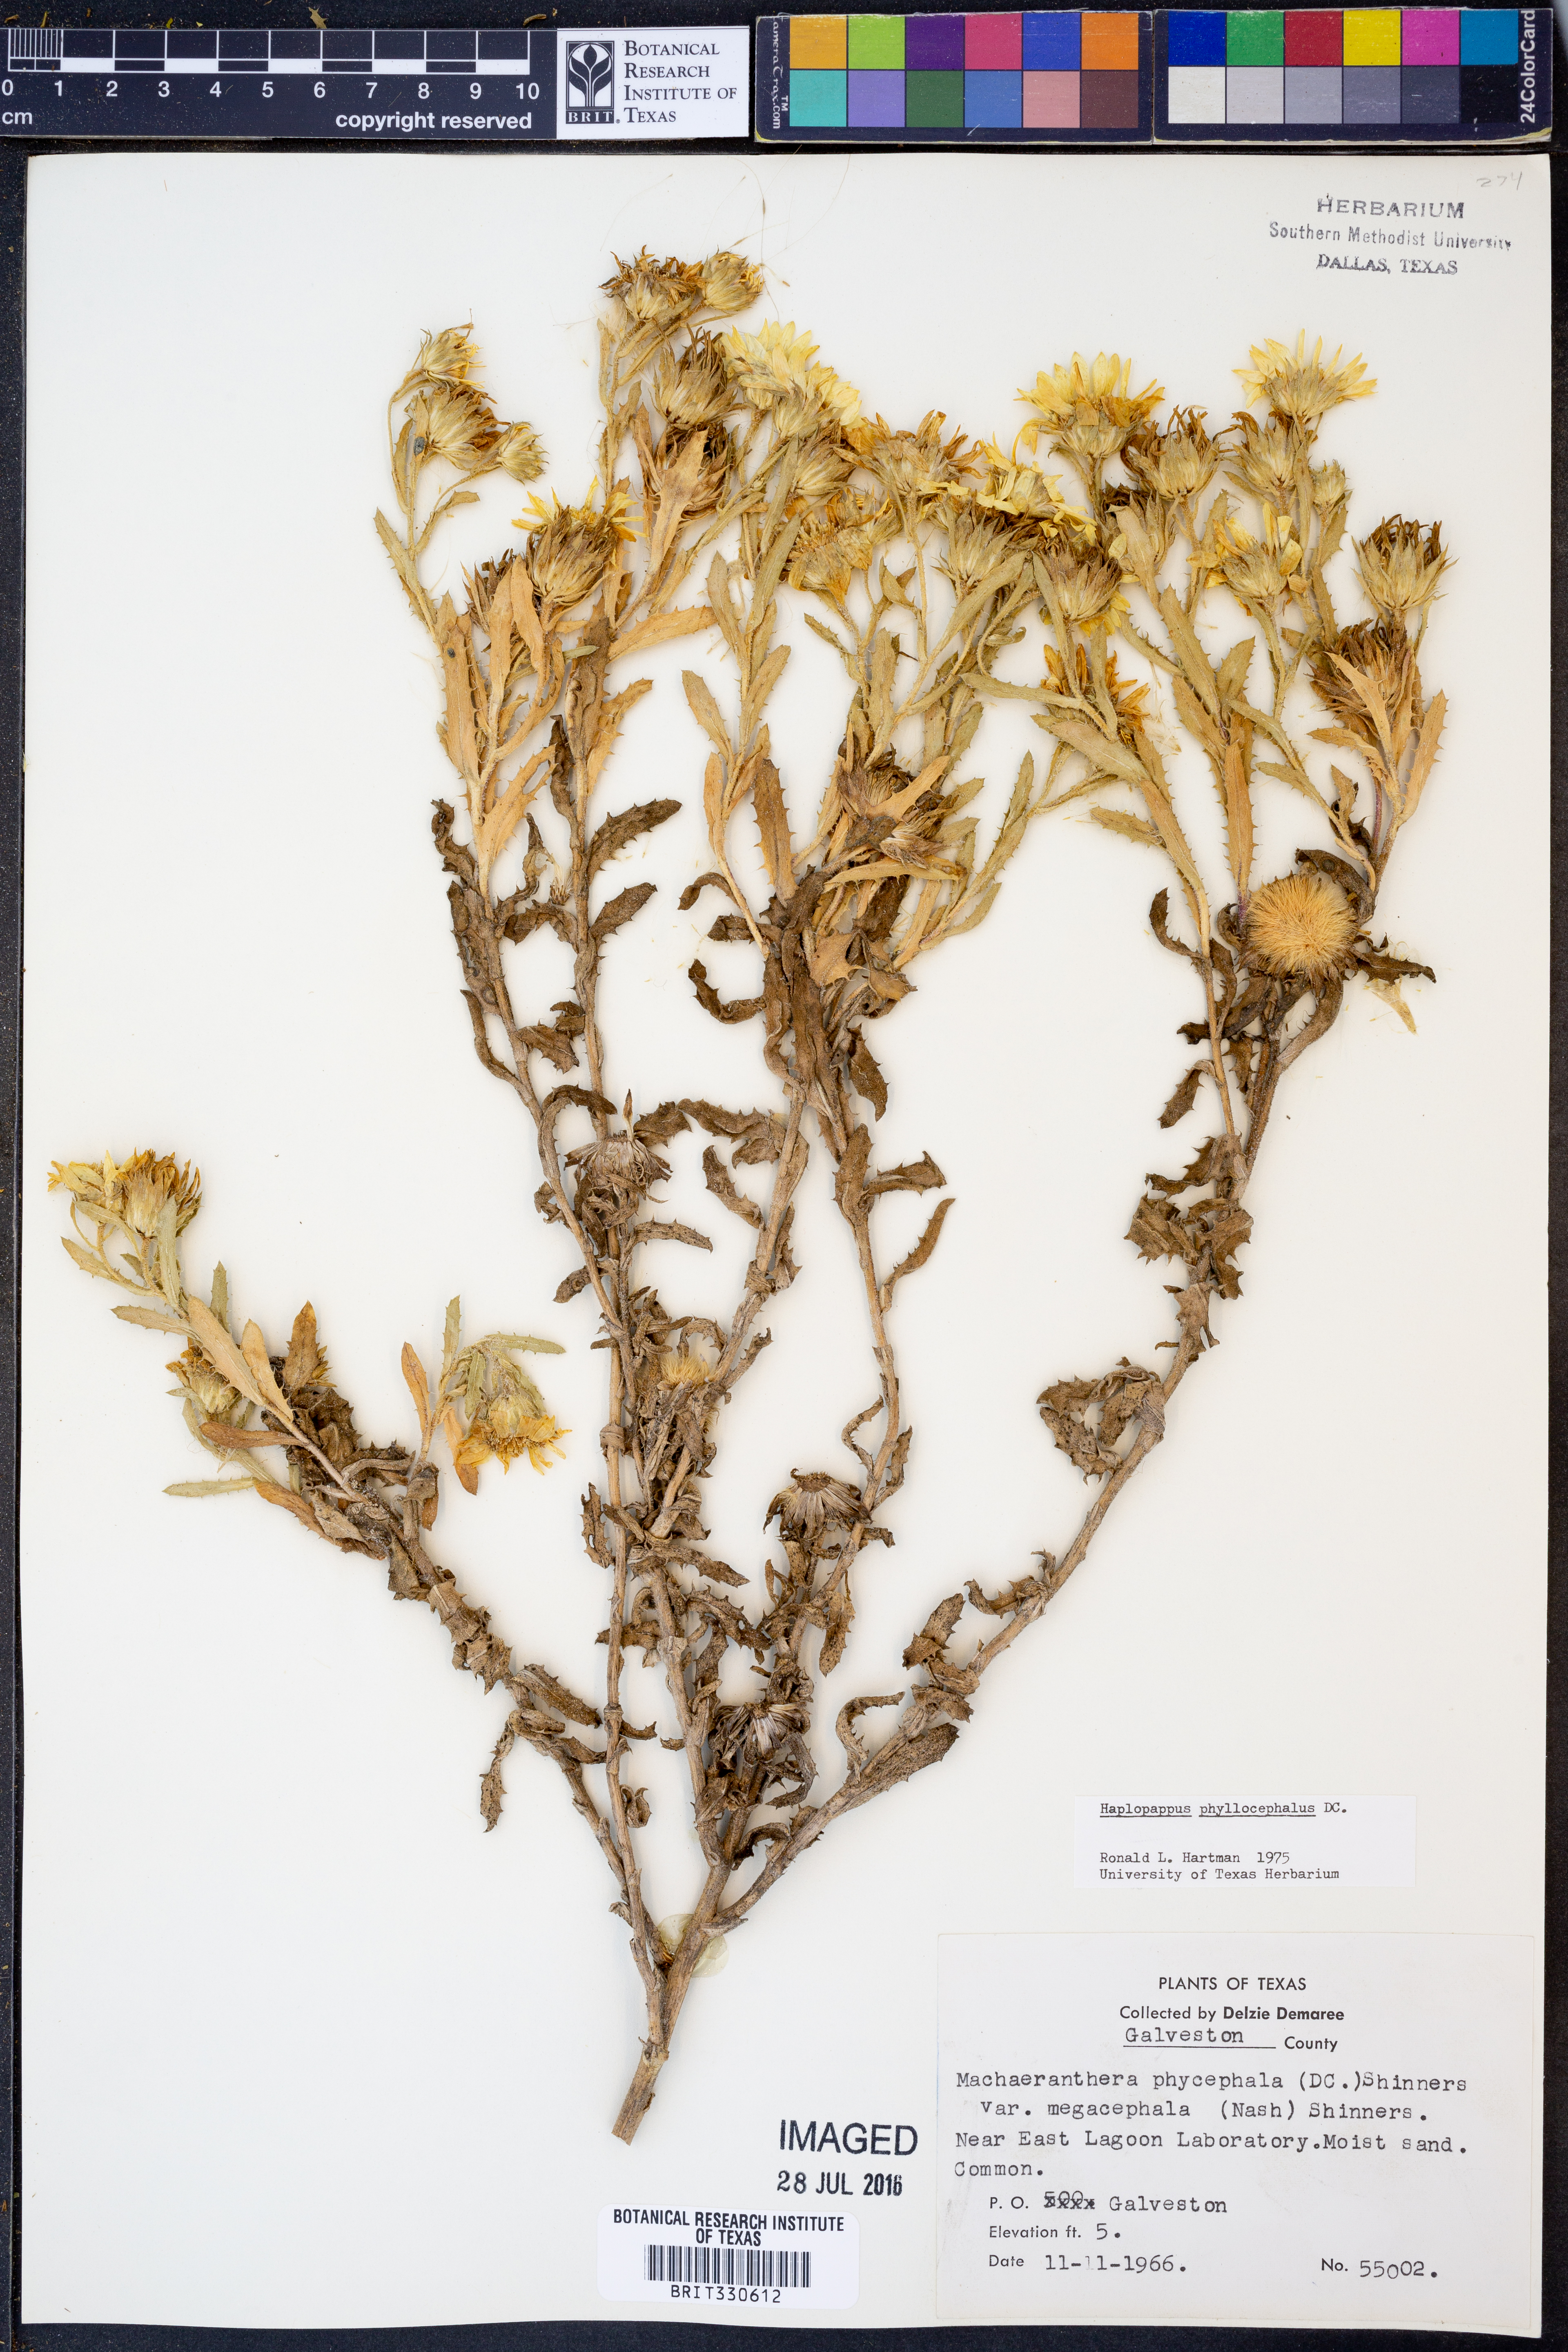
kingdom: Plantae
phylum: Tracheophyta
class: Magnoliopsida
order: Asterales
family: Asteraceae
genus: Rayjacksonia
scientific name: Rayjacksonia phyllocephala
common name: Gulf coast camphor daisy
